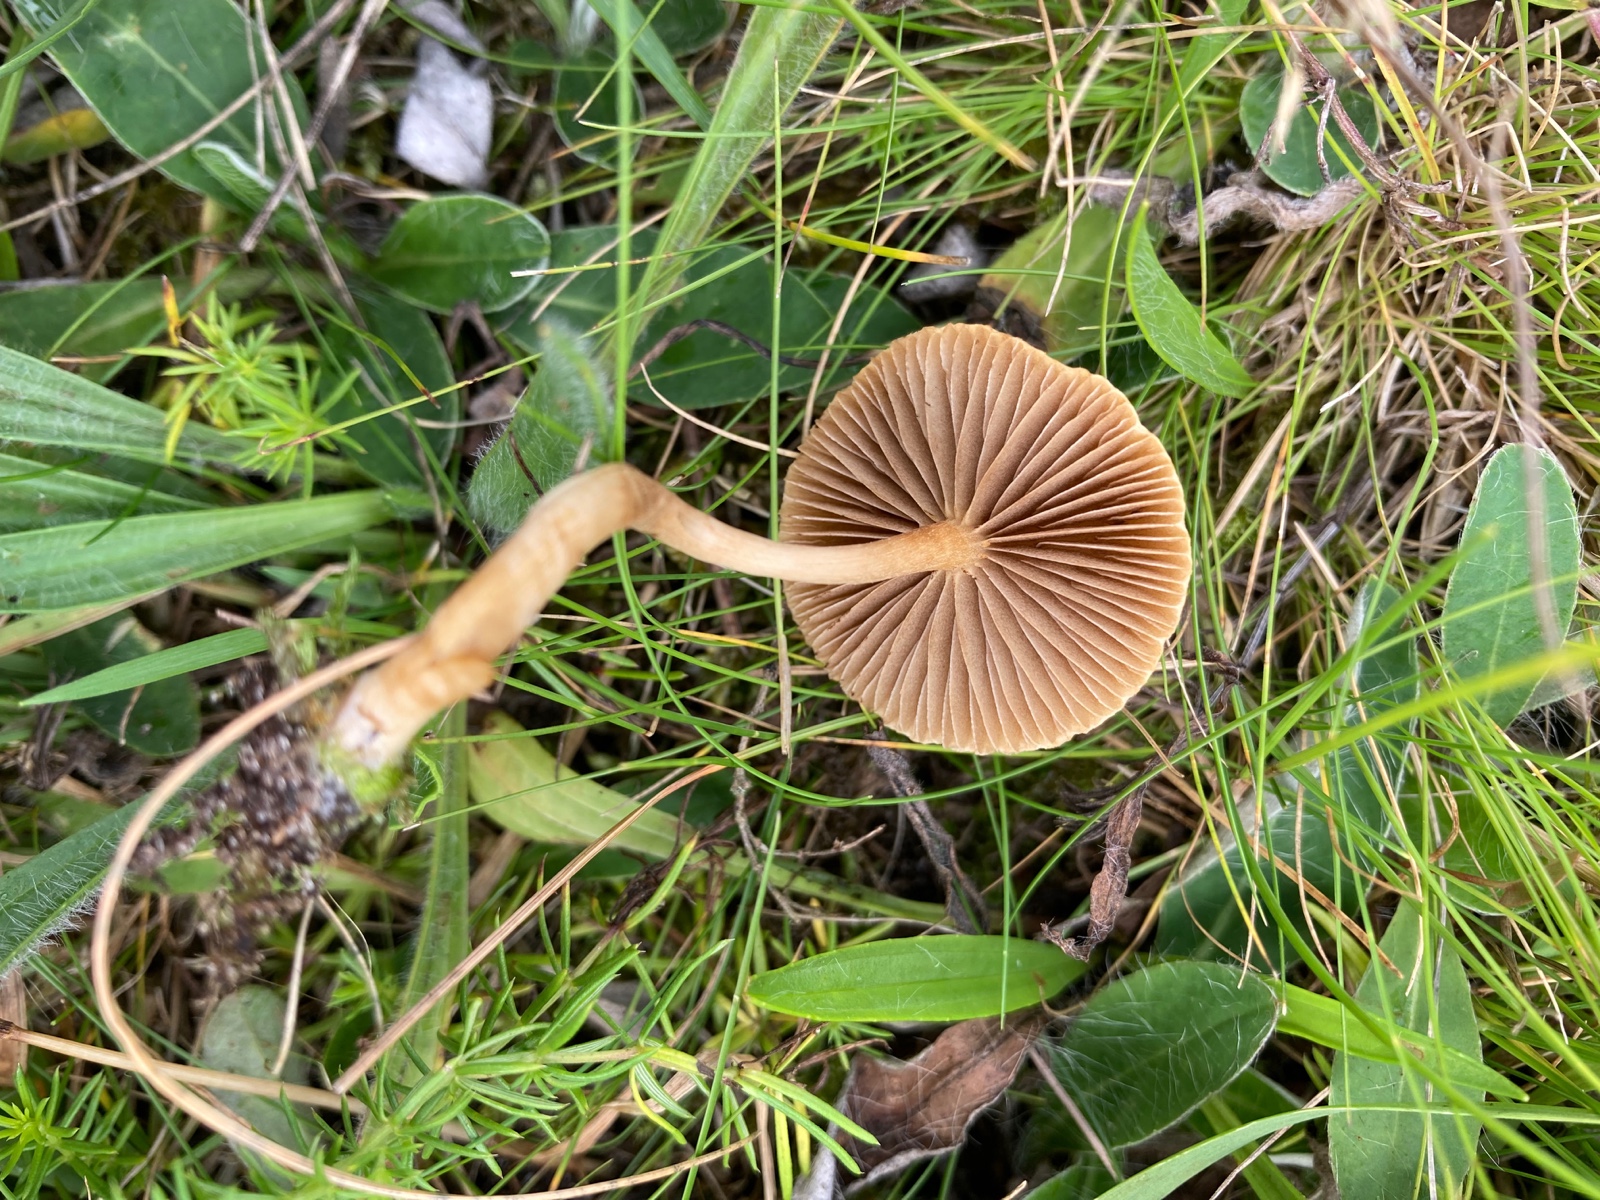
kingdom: Fungi
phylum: Basidiomycota
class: Agaricomycetes
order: Agaricales
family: Strophariaceae
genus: Agrocybe
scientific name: Agrocybe pediades
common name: almindelig agerhat
